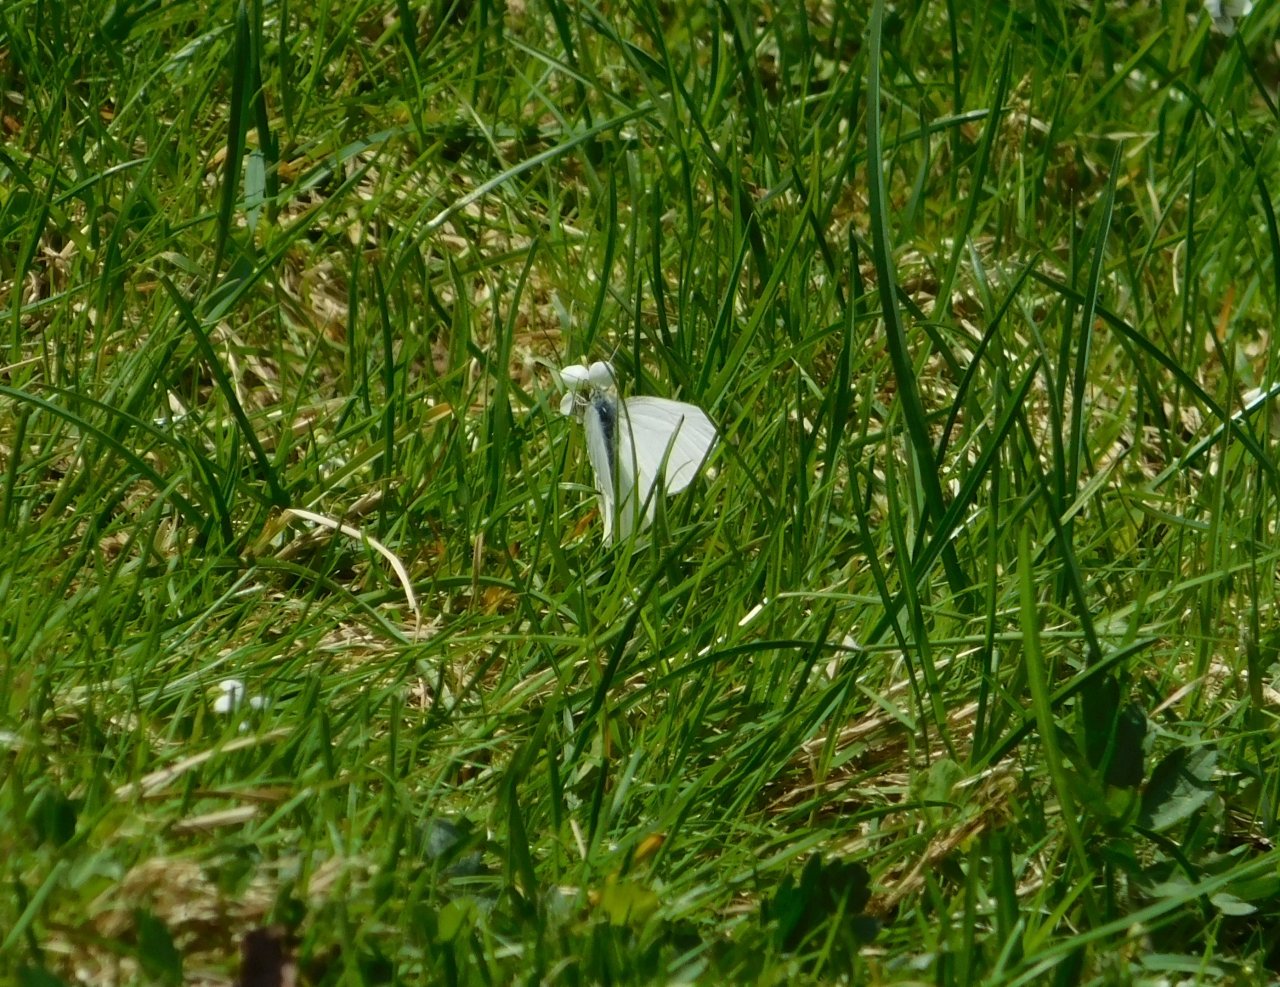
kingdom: Animalia
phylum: Arthropoda
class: Insecta
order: Lepidoptera
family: Pieridae
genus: Pieris
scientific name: Pieris oleracea
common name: Mustard White
